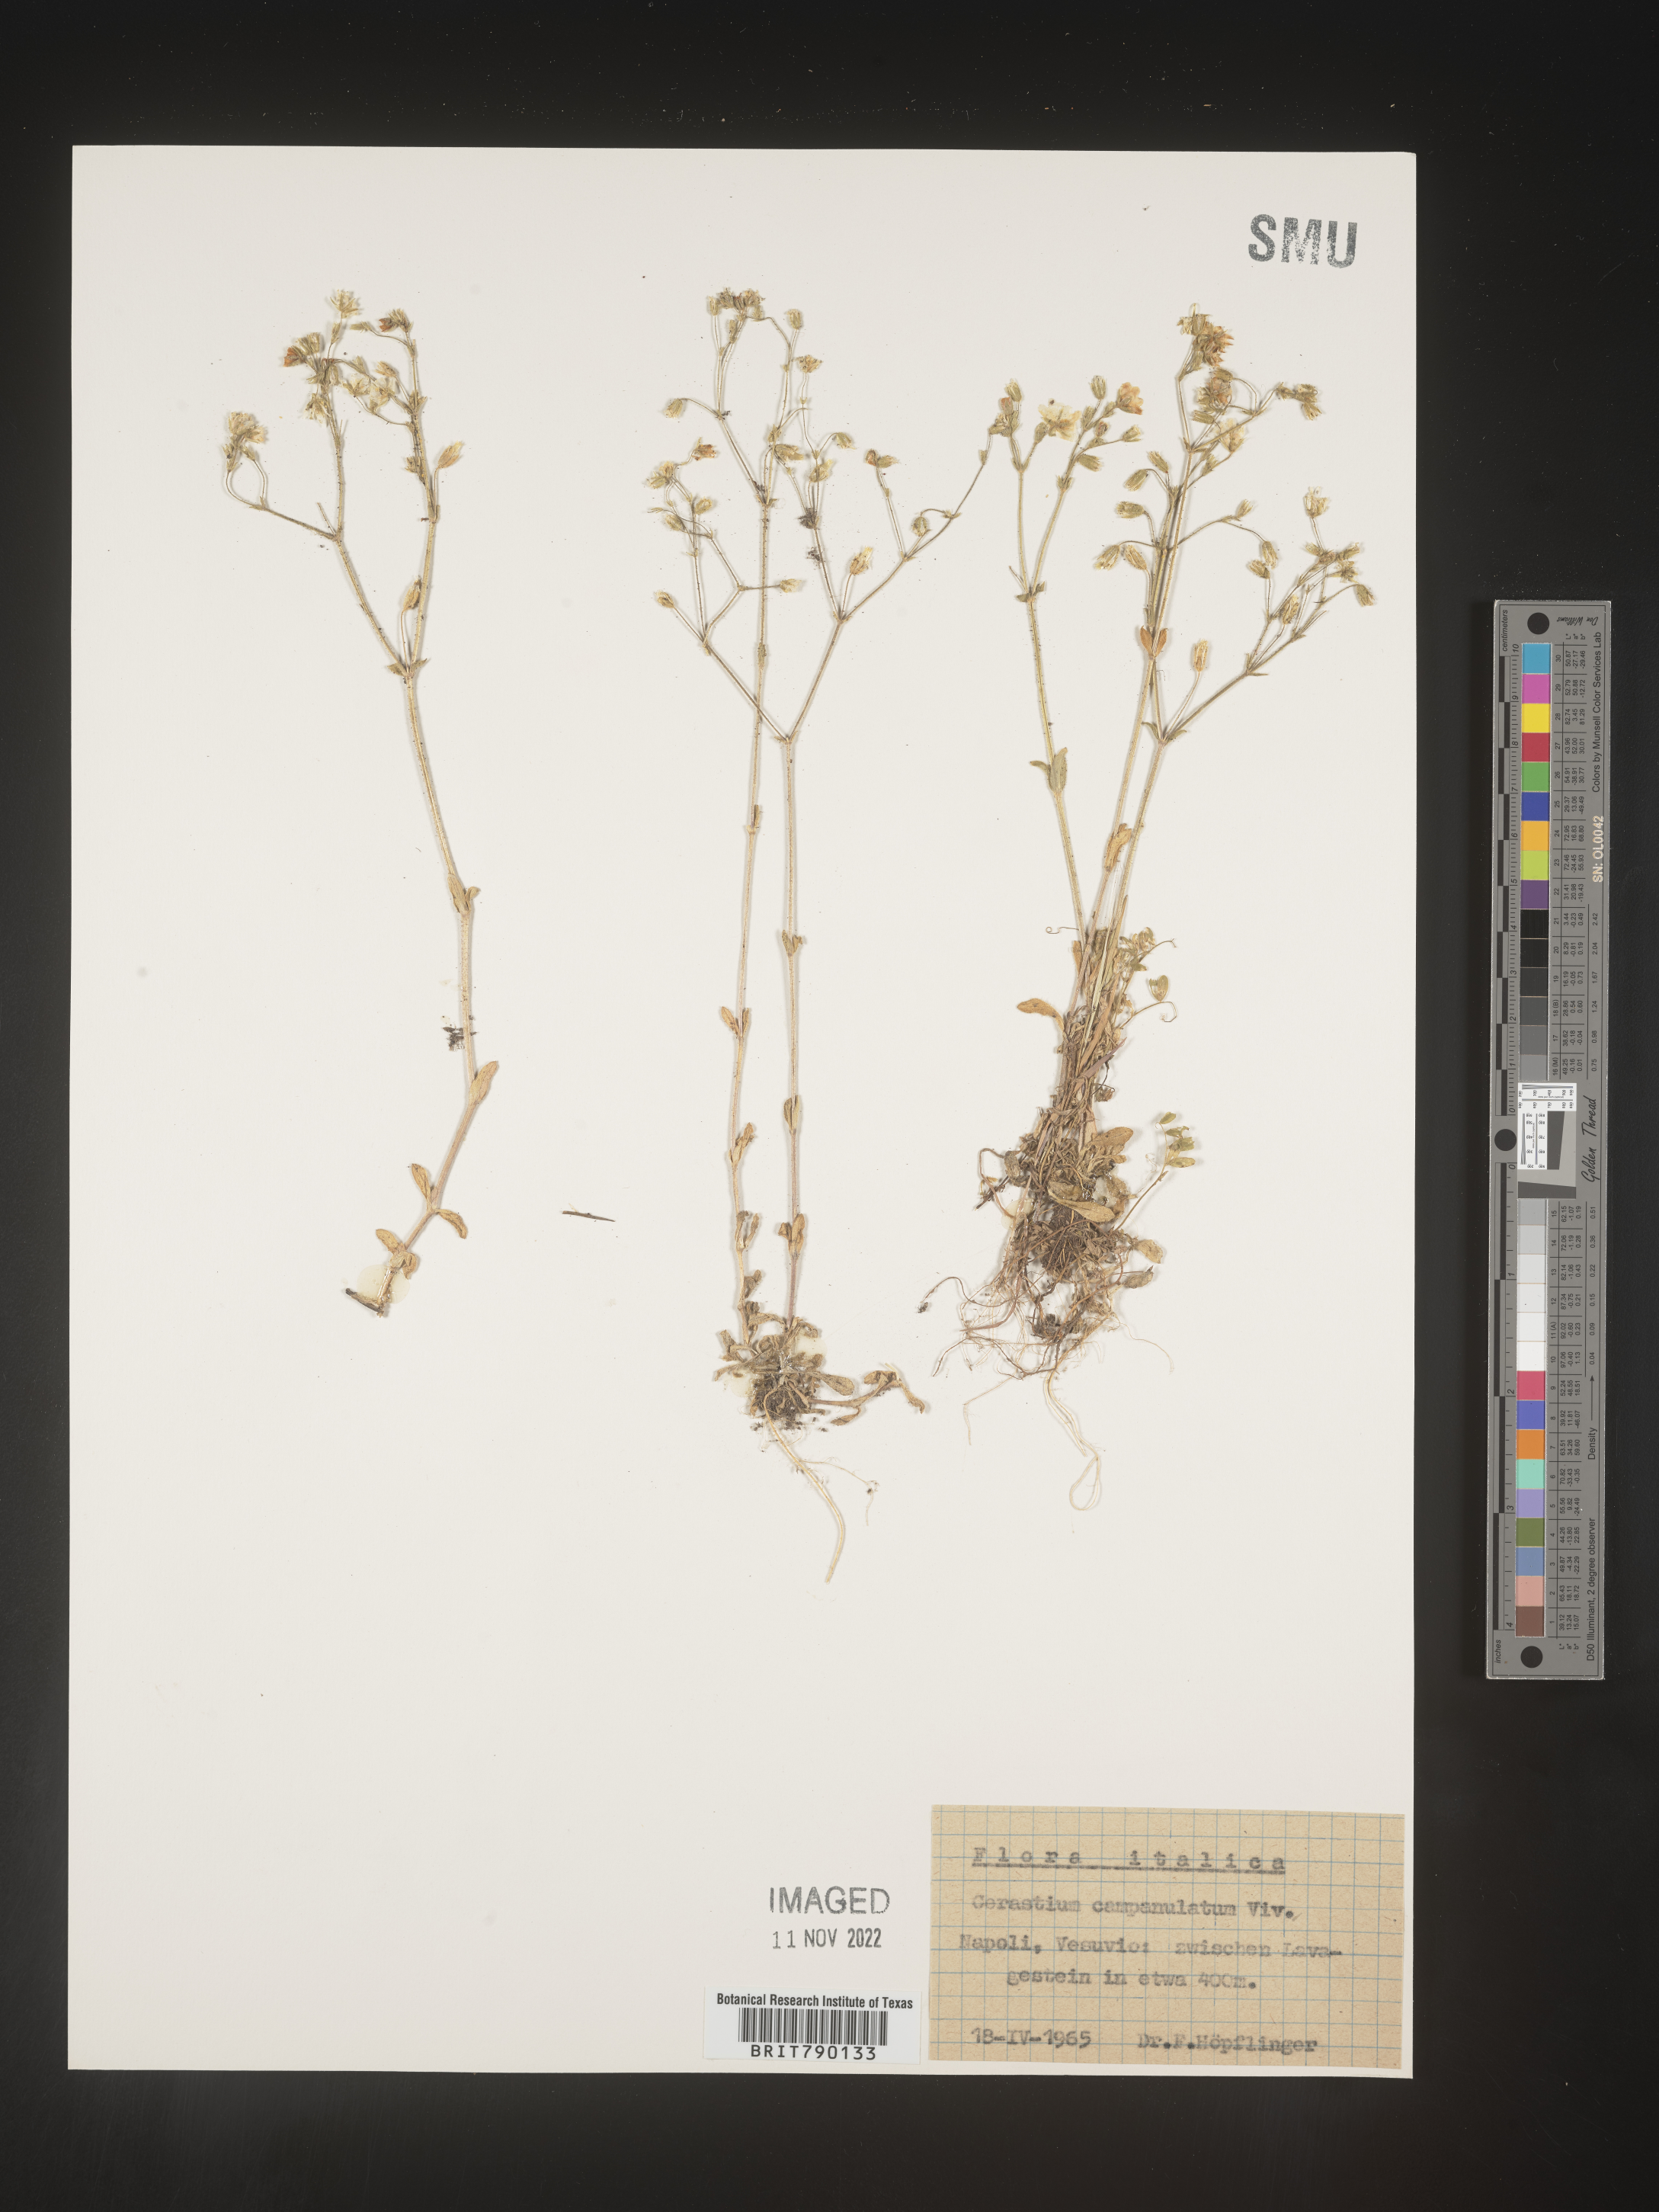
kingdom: Plantae
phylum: Tracheophyta
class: Magnoliopsida
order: Caryophyllales
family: Caryophyllaceae
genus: Cerastium
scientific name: Cerastium
